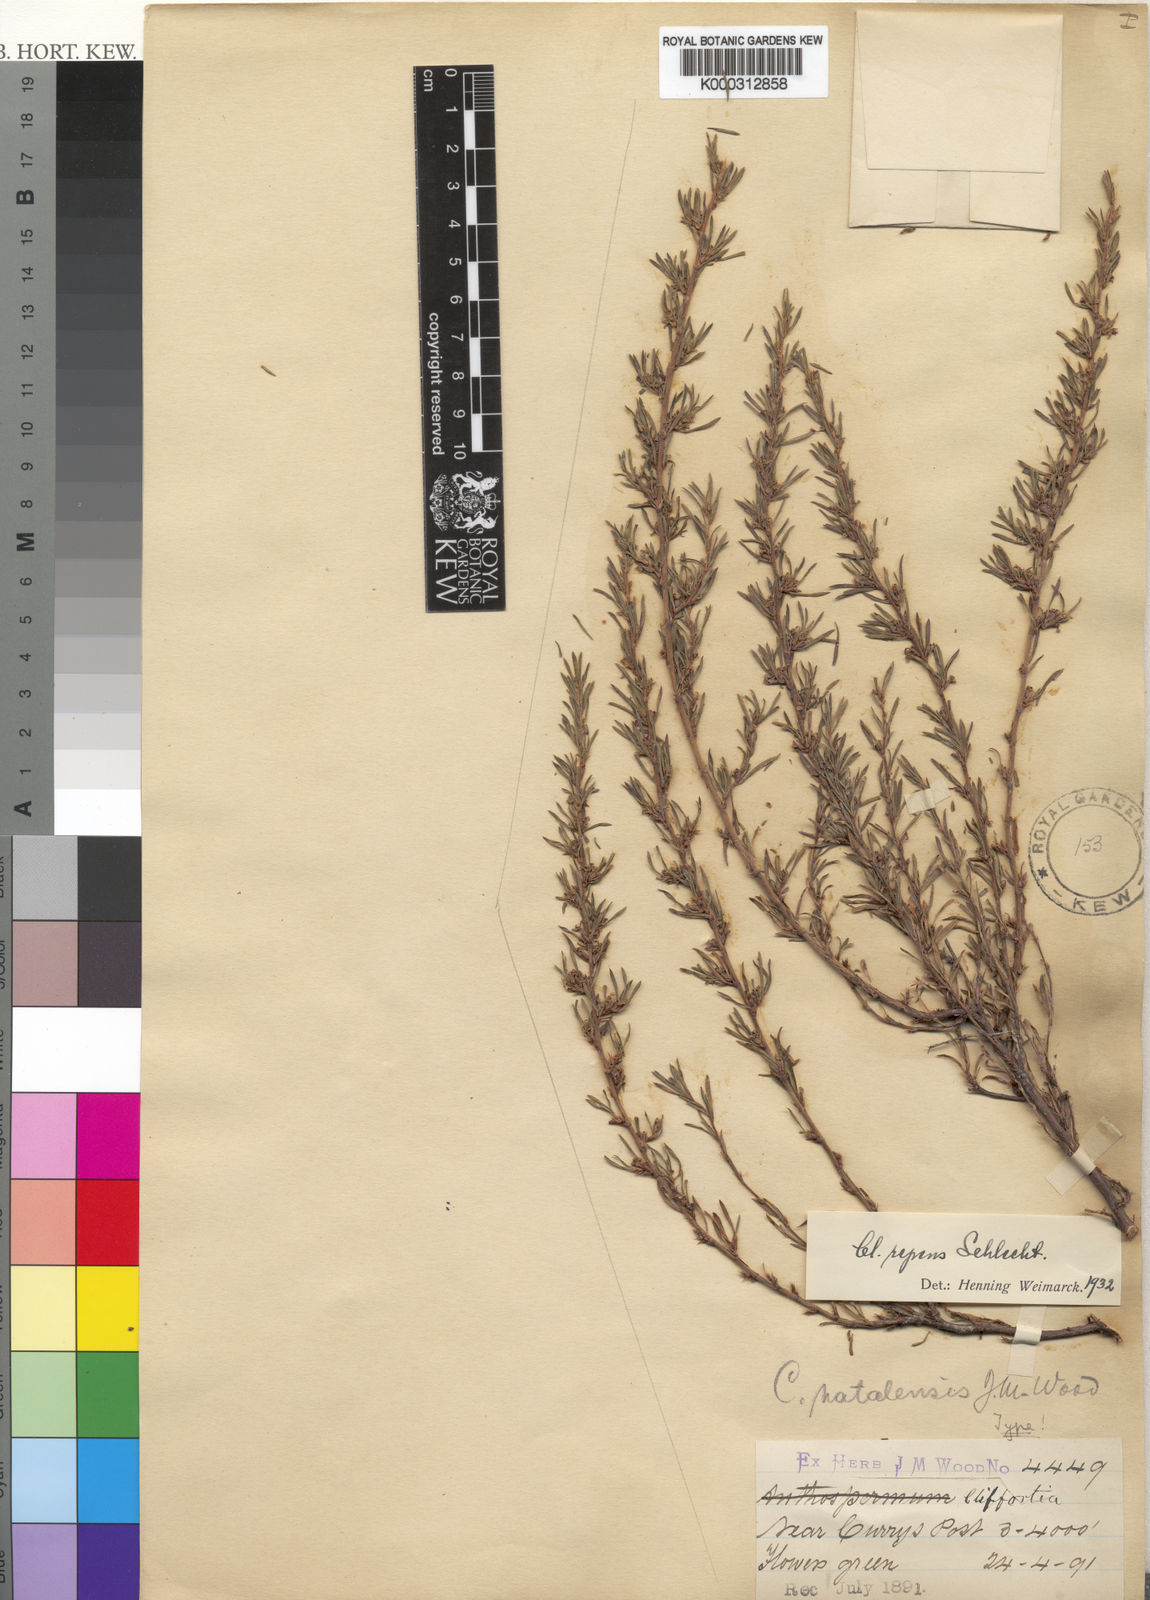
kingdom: Plantae
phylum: Tracheophyta
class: Magnoliopsida
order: Rosales
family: Rosaceae
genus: Cliffortia
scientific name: Cliffortia repens
